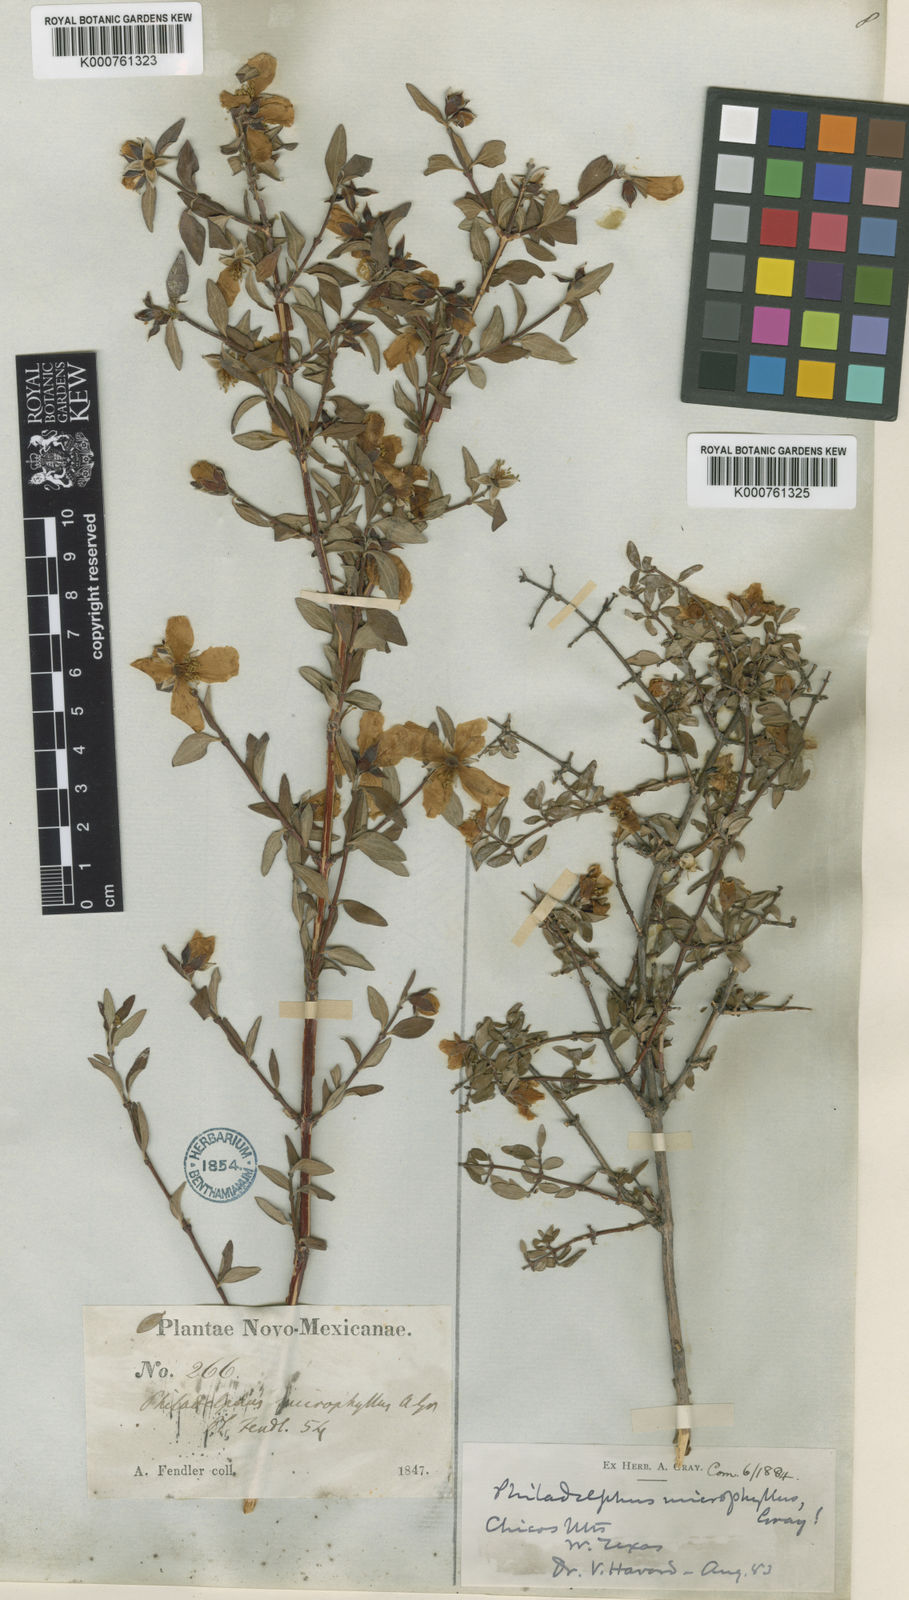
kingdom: Plantae
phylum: Tracheophyta
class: Magnoliopsida
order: Cornales
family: Hydrangeaceae
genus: Philadelphus
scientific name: Philadelphus microphyllus
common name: Desert mock orange
